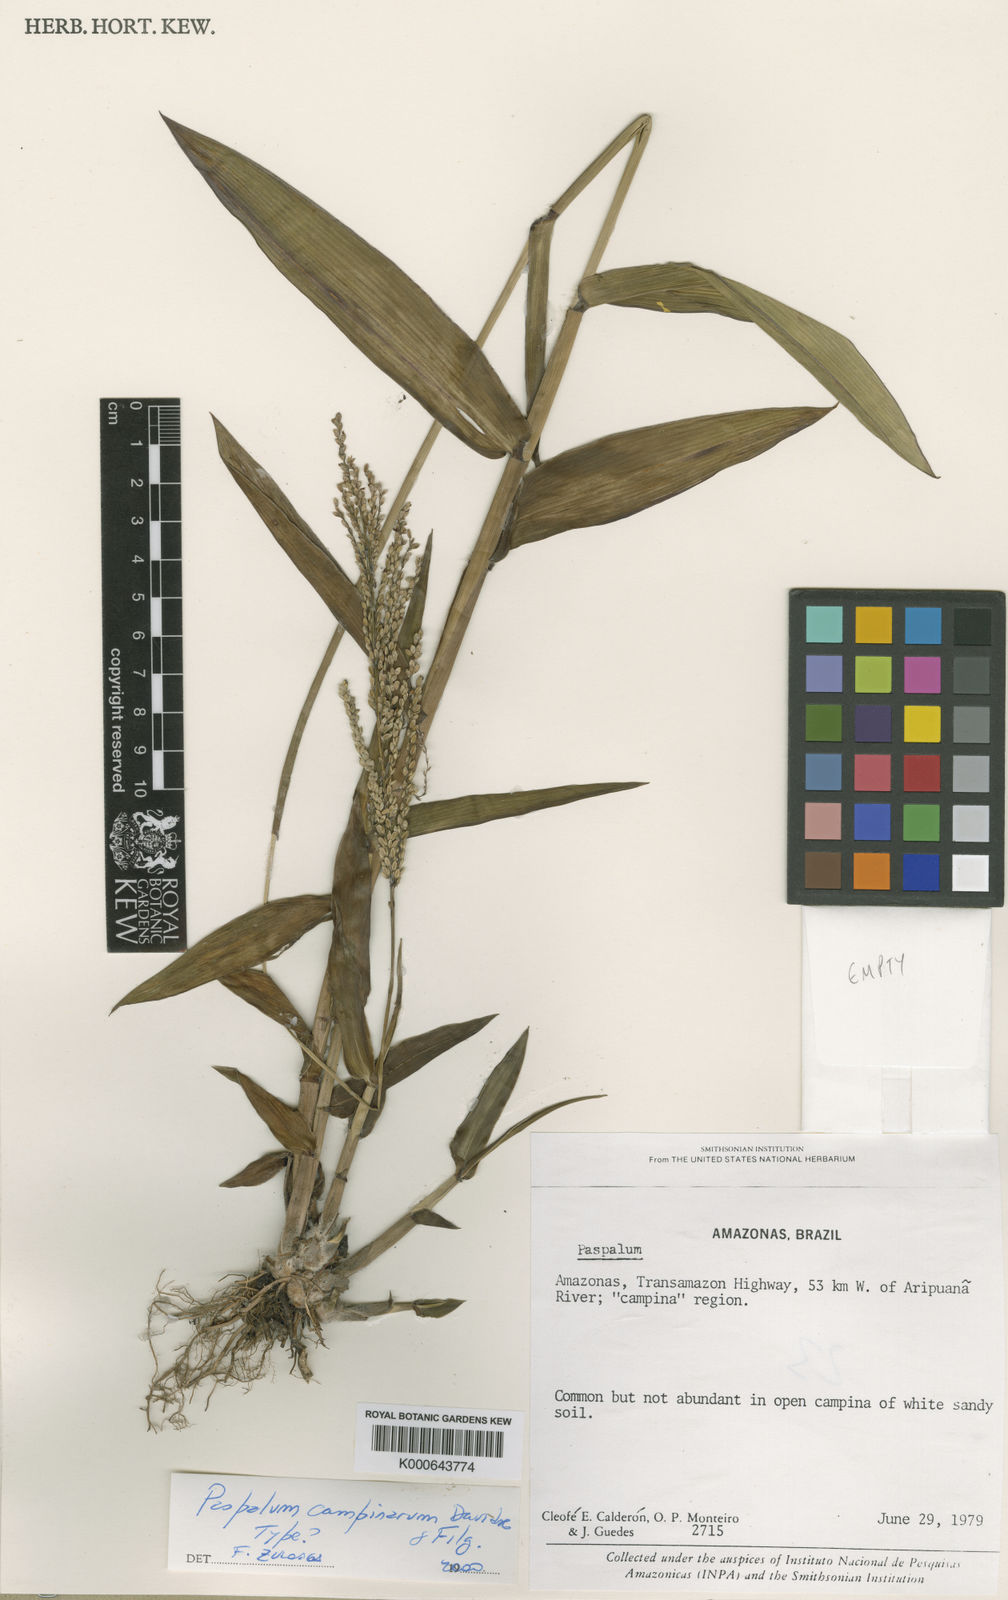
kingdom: Plantae
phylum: Tracheophyta
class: Liliopsida
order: Poales
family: Poaceae
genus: Paspalum
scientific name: Paspalum campinarum
